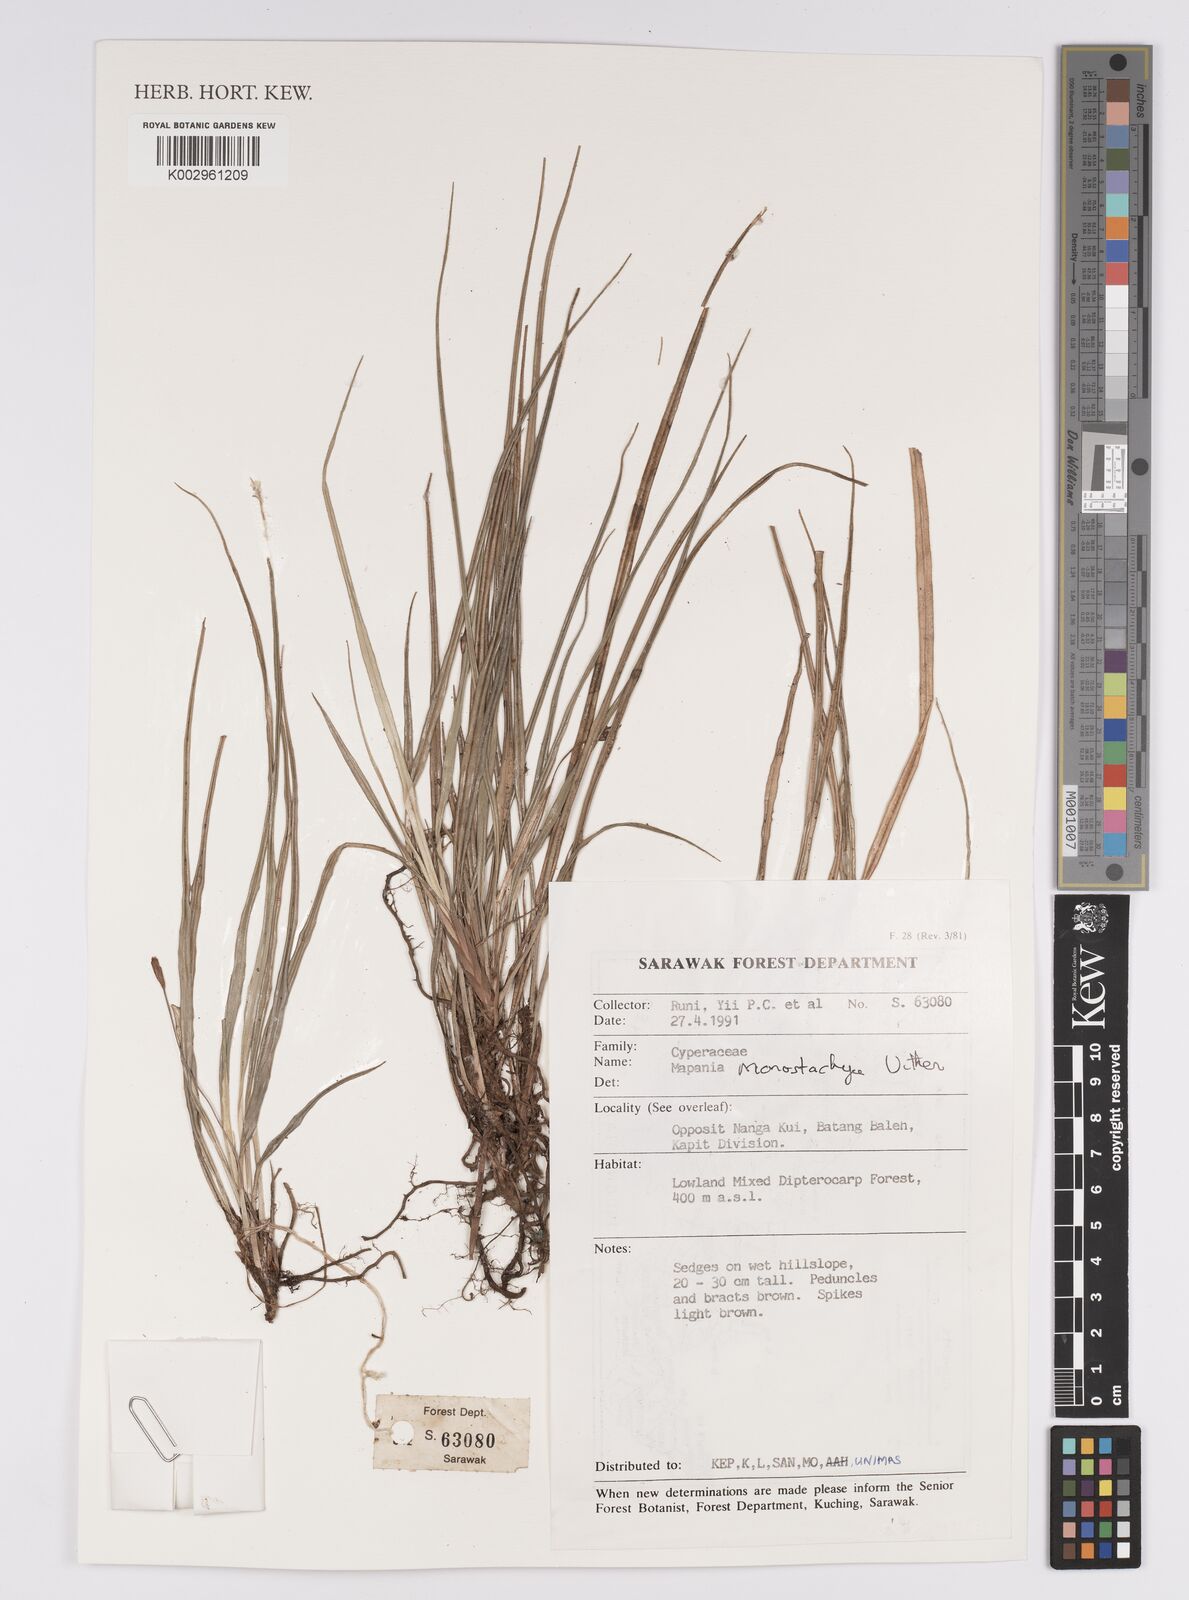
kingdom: Plantae
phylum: Tracheophyta
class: Liliopsida
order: Poales
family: Cyperaceae
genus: Mapania
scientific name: Mapania monostachya
